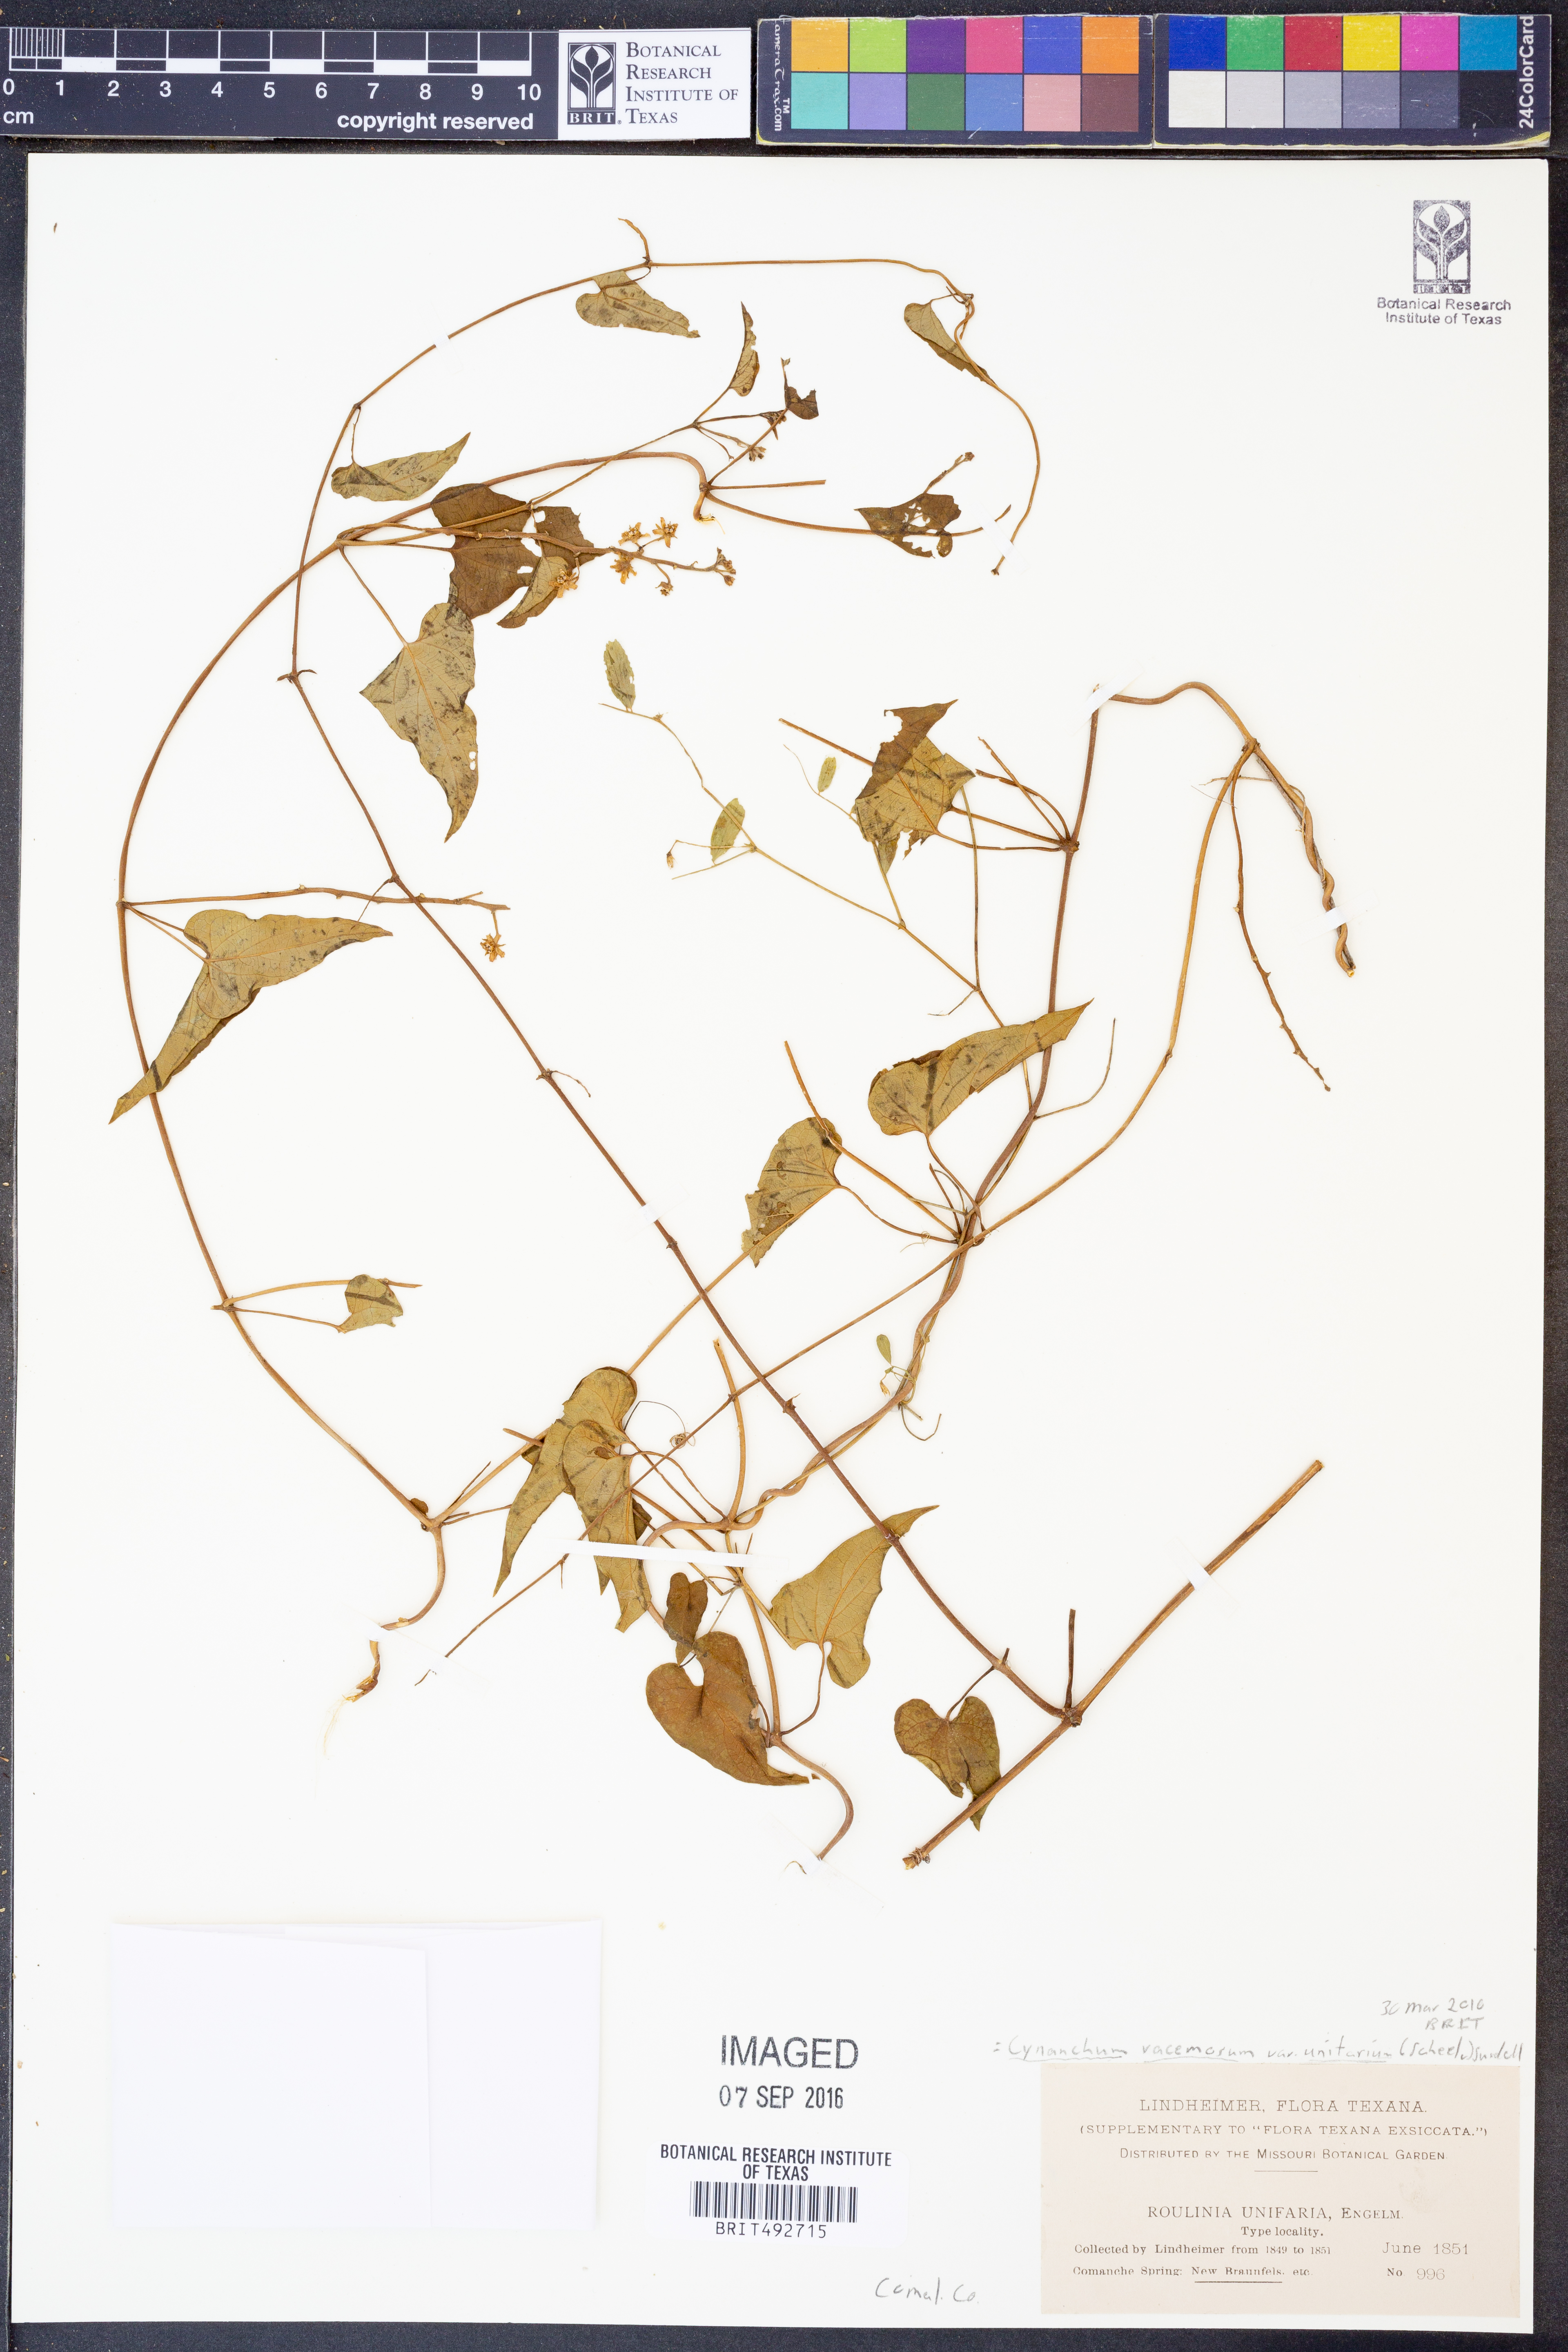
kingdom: Plantae
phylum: Tracheophyta
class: Magnoliopsida
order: Gentianales
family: Apocynaceae
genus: Cynanchum
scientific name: Cynanchum racemosum
